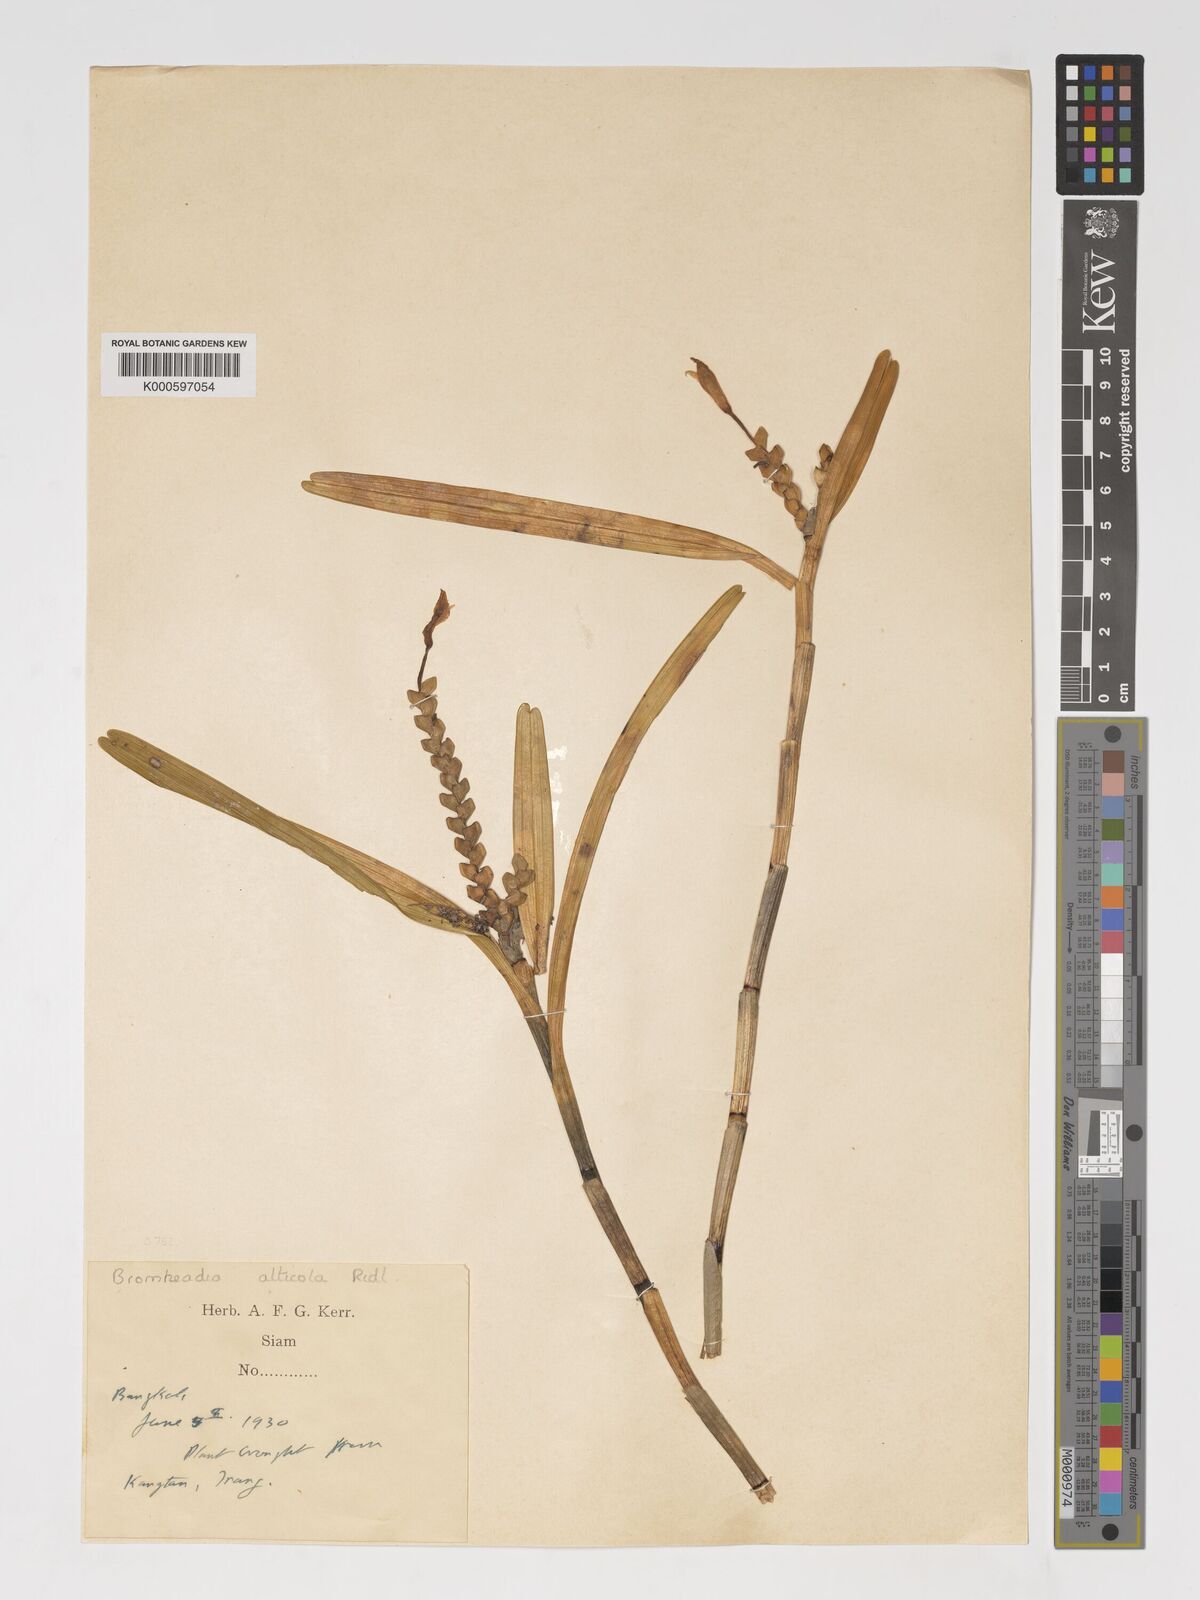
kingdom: Plantae
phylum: Tracheophyta
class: Liliopsida
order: Asparagales
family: Orchidaceae
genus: Bromheadia
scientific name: Bromheadia aporoides
